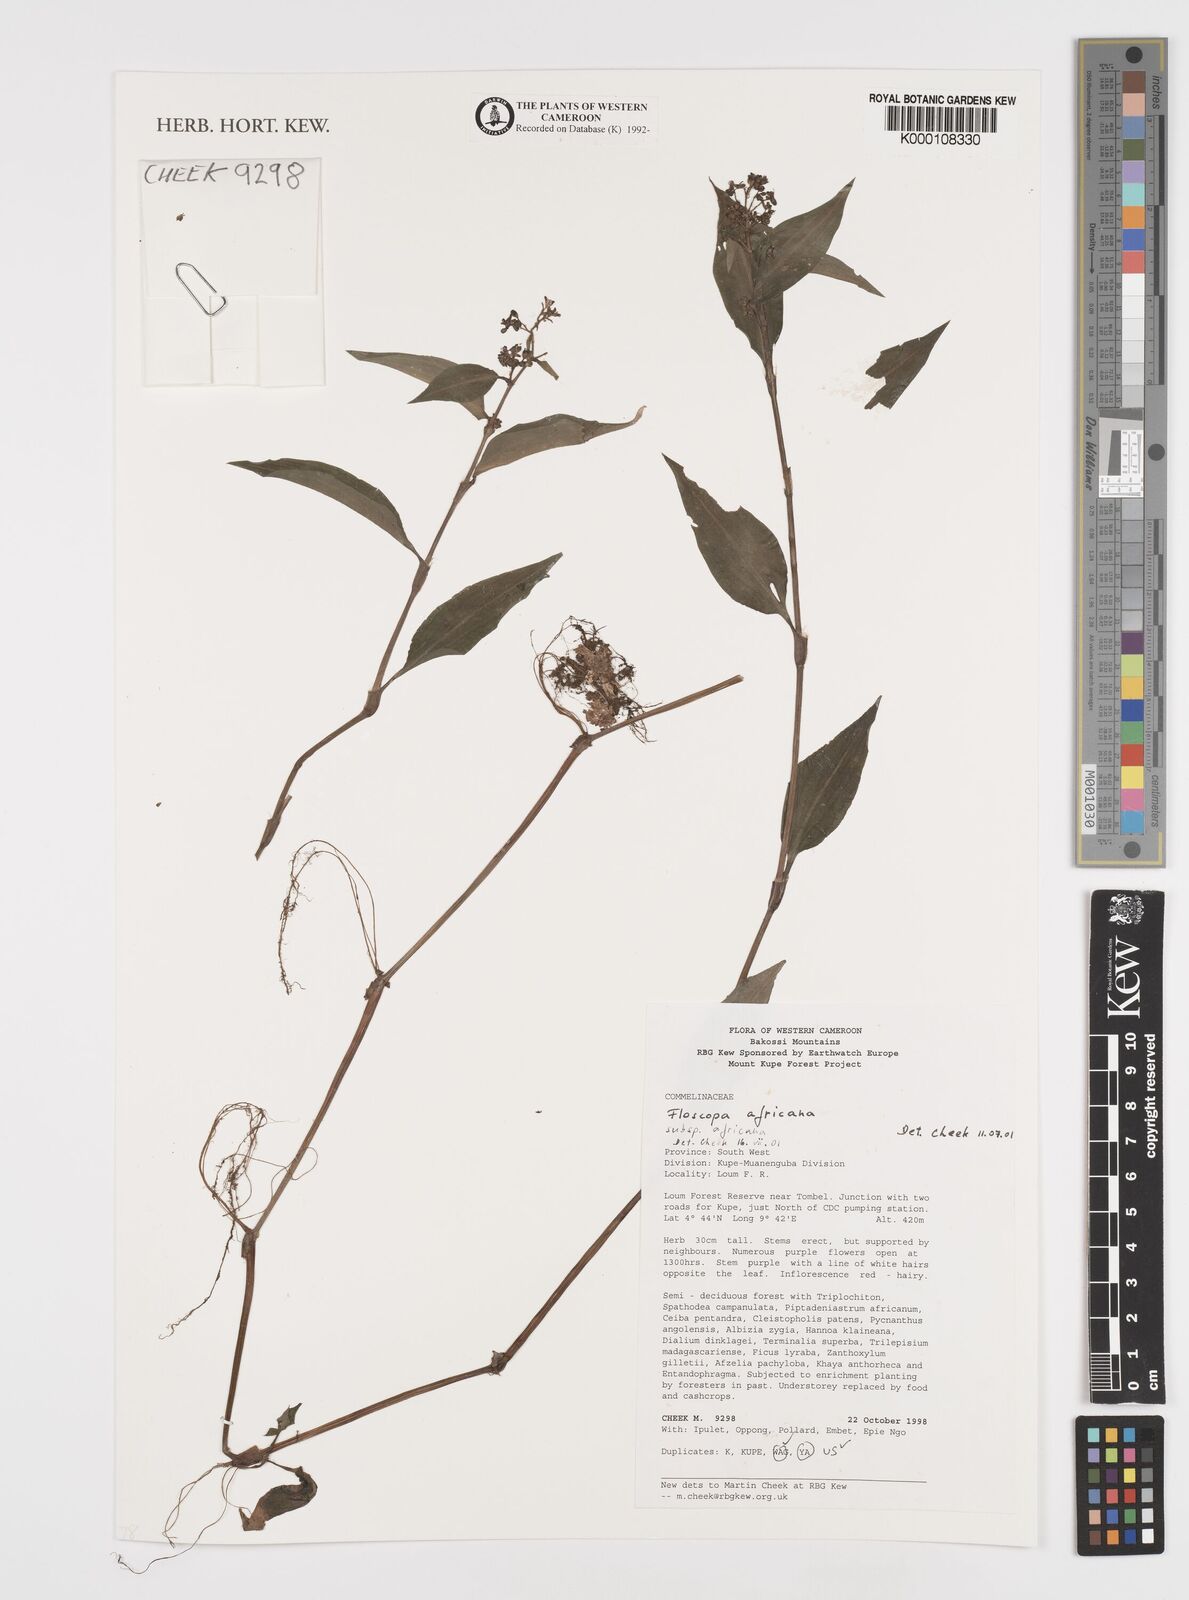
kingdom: Plantae
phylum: Tracheophyta
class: Liliopsida
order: Commelinales
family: Commelinaceae
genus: Floscopa
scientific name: Floscopa africana
